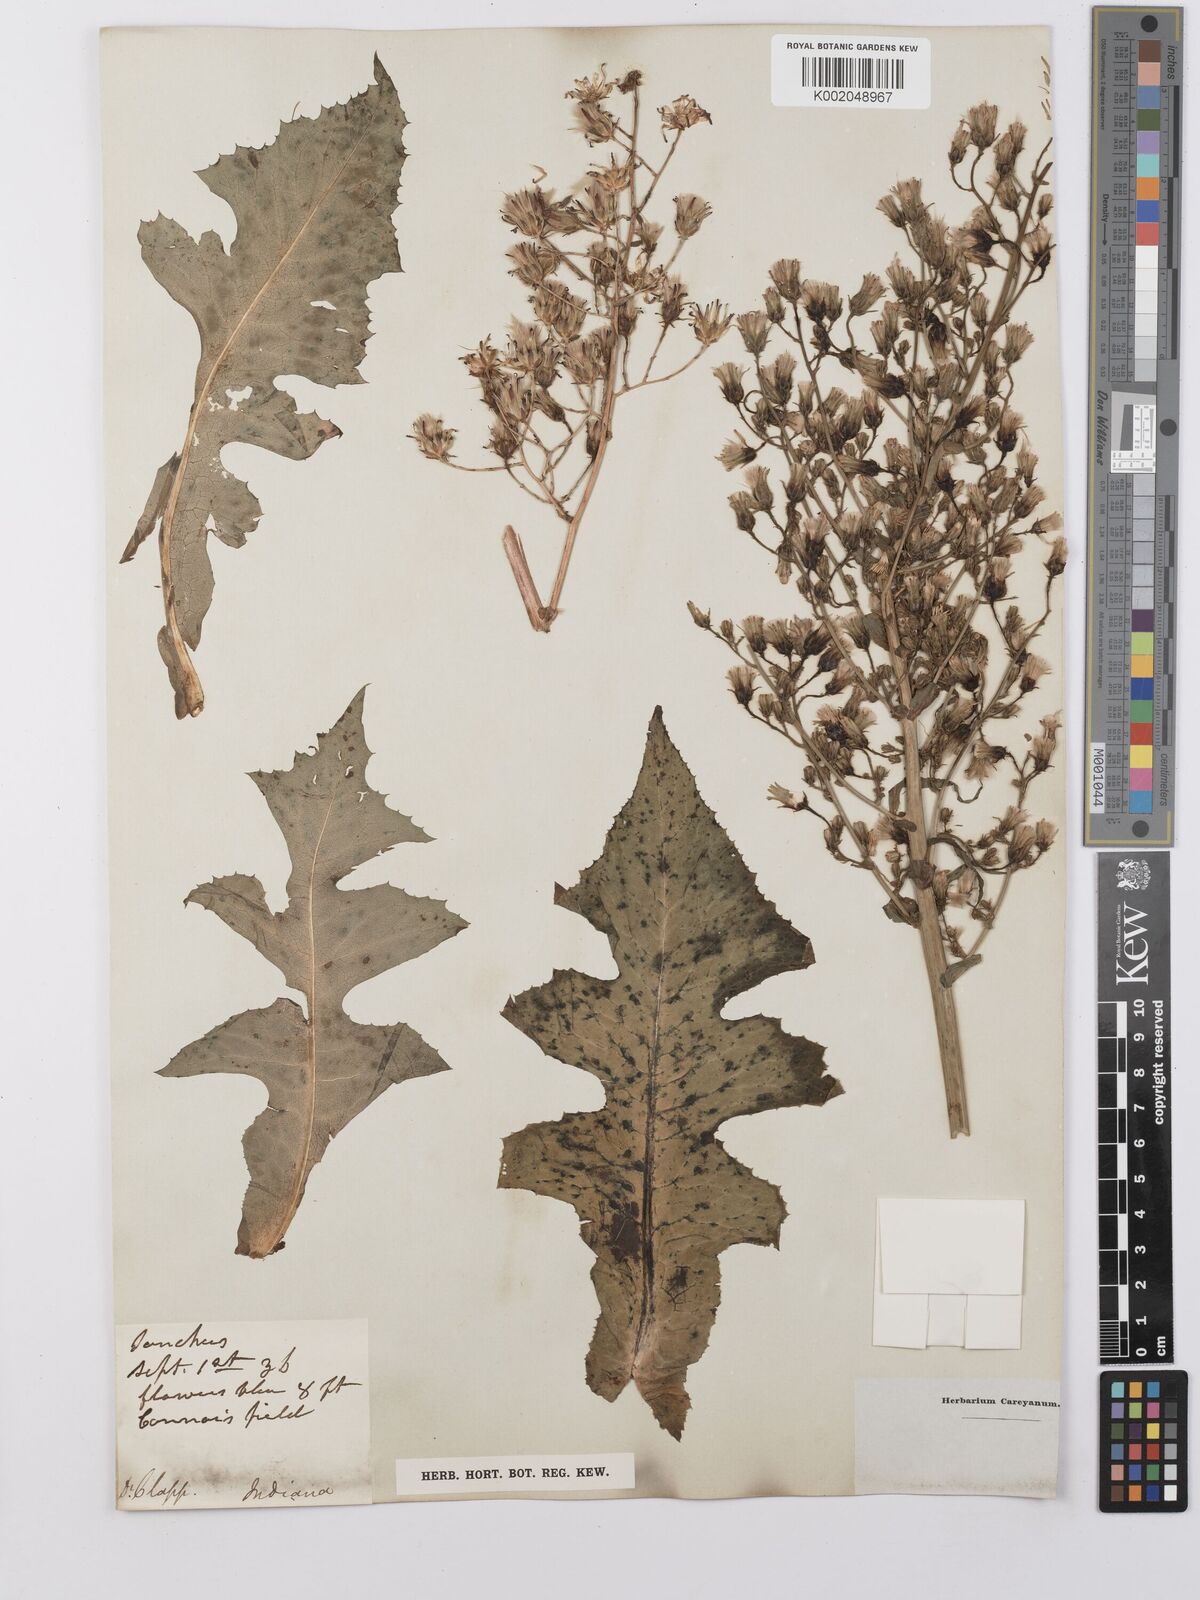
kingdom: Plantae
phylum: Tracheophyta
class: Magnoliopsida
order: Asterales
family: Asteraceae
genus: Lactuca
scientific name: Lactuca
